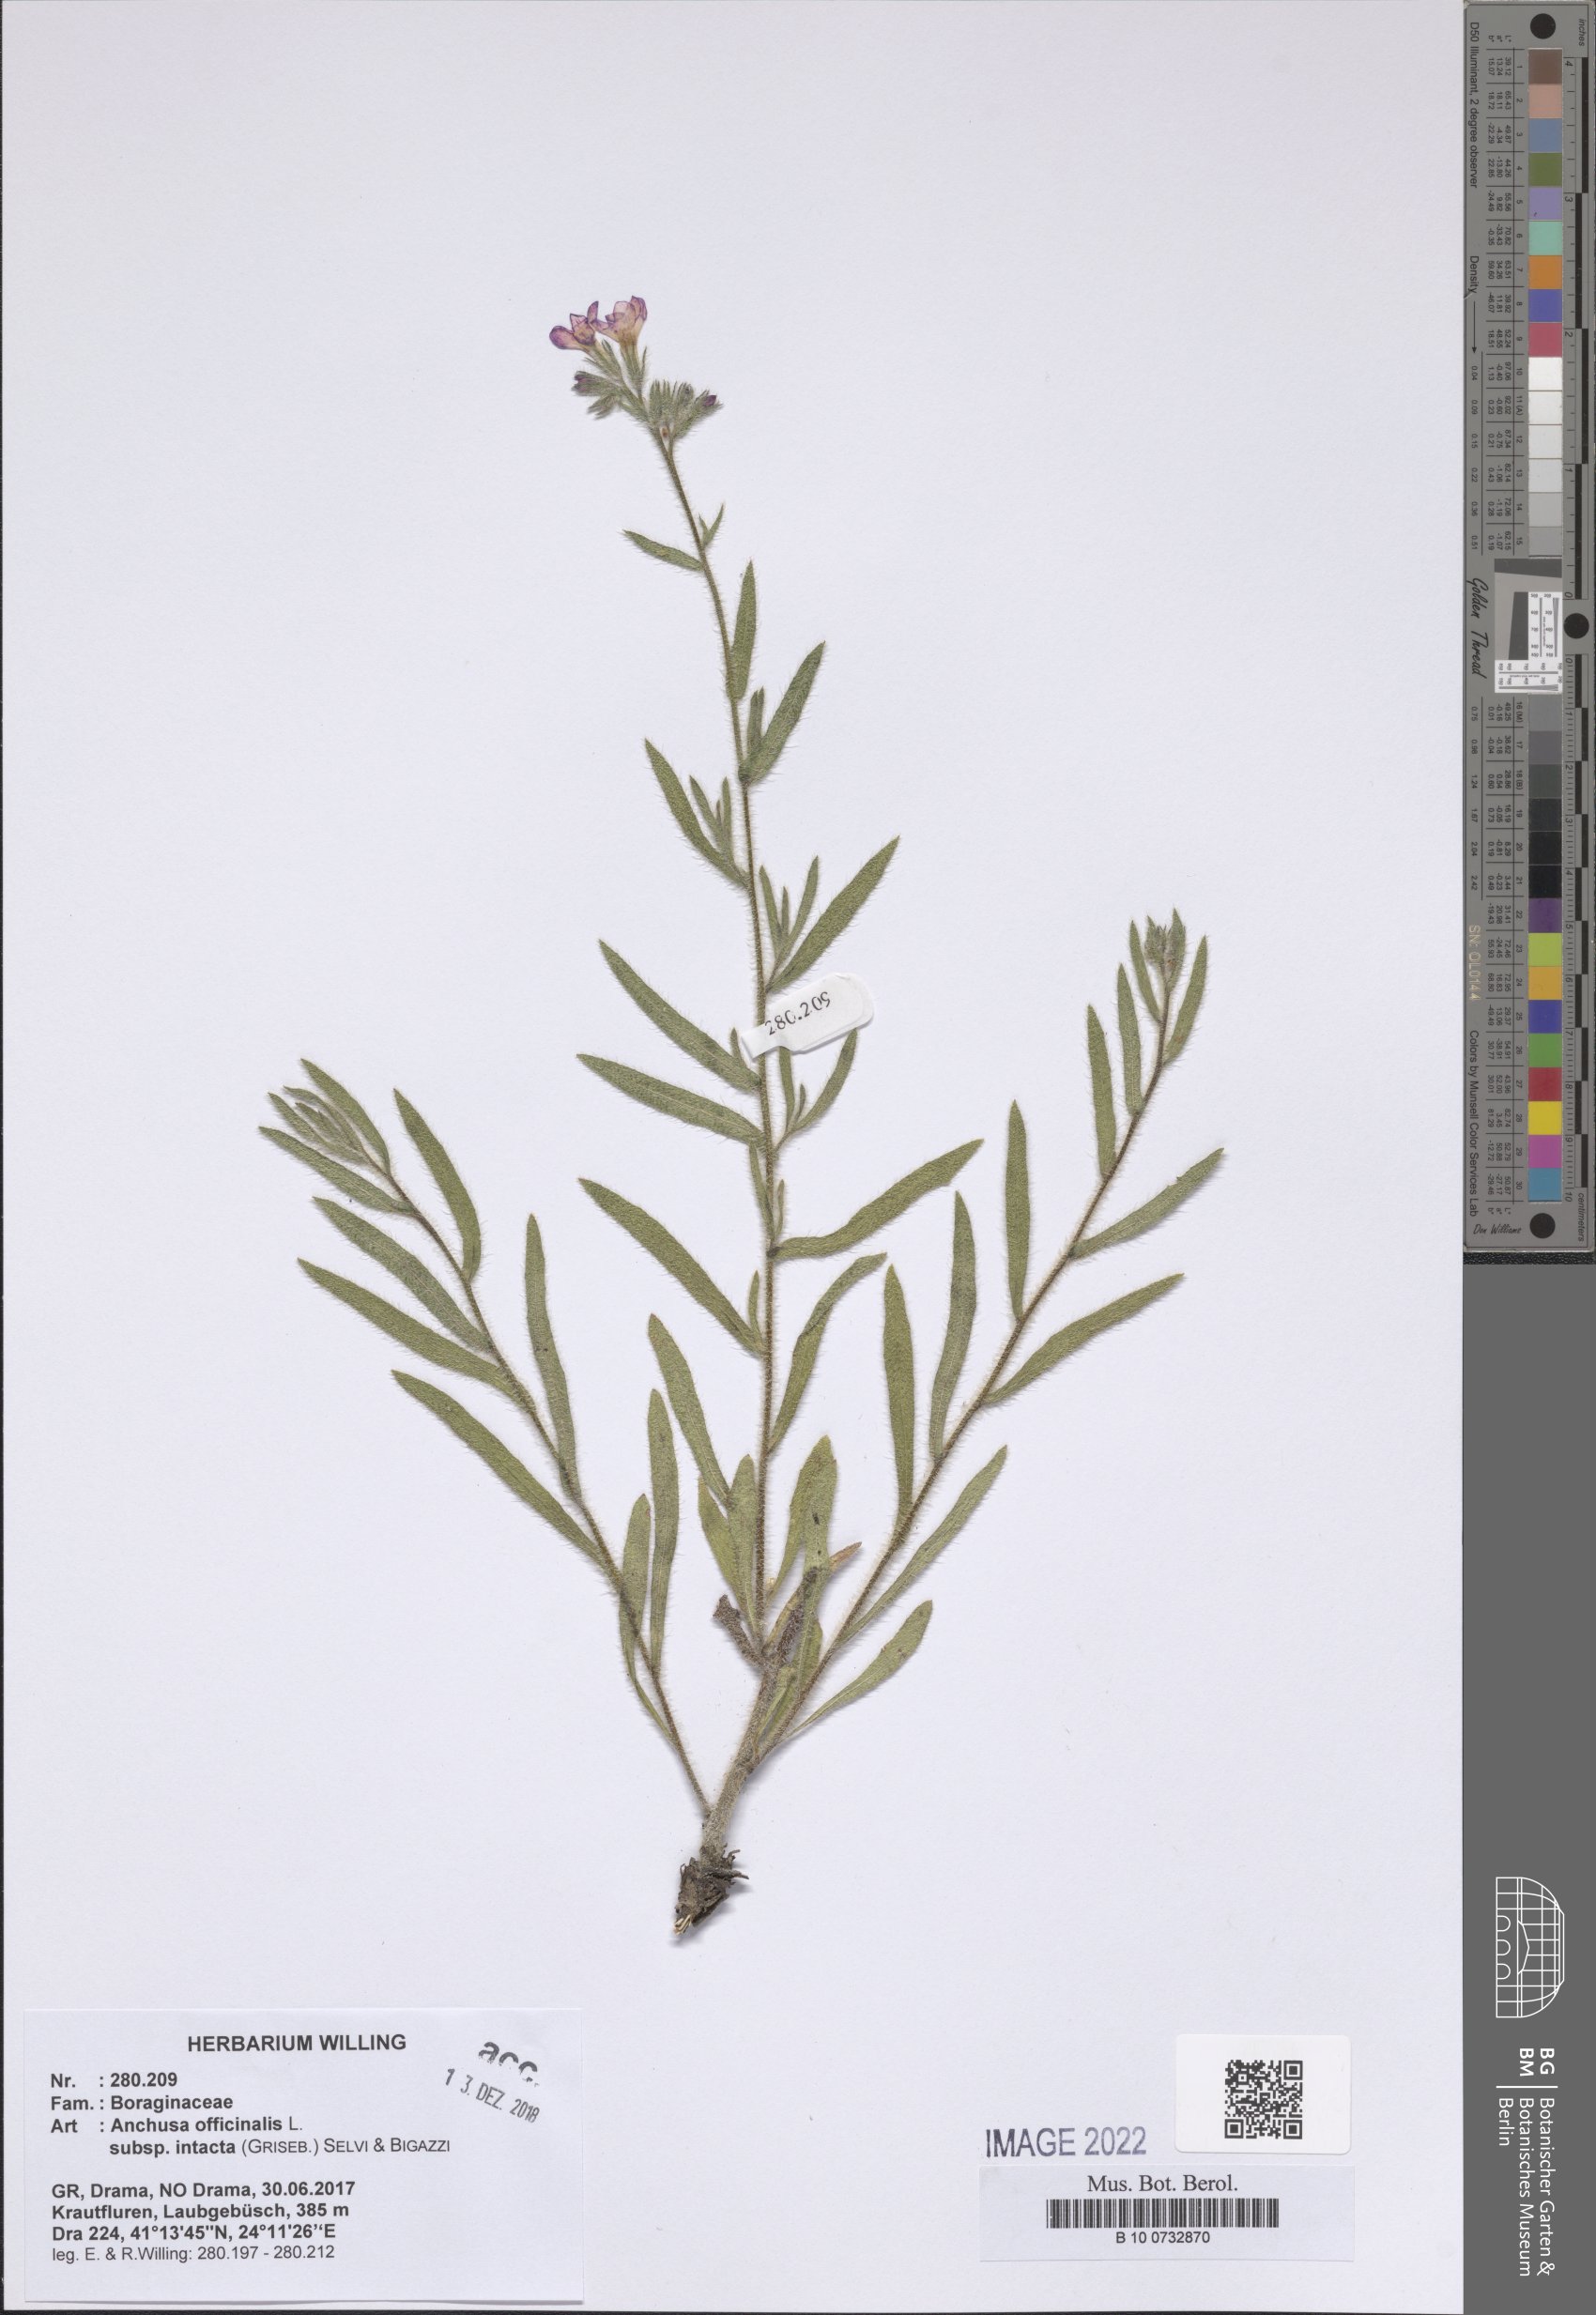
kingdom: Plantae
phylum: Tracheophyta
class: Magnoliopsida
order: Boraginales
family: Boraginaceae
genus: Anchusa
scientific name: Anchusa officinalis
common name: Alkanet
